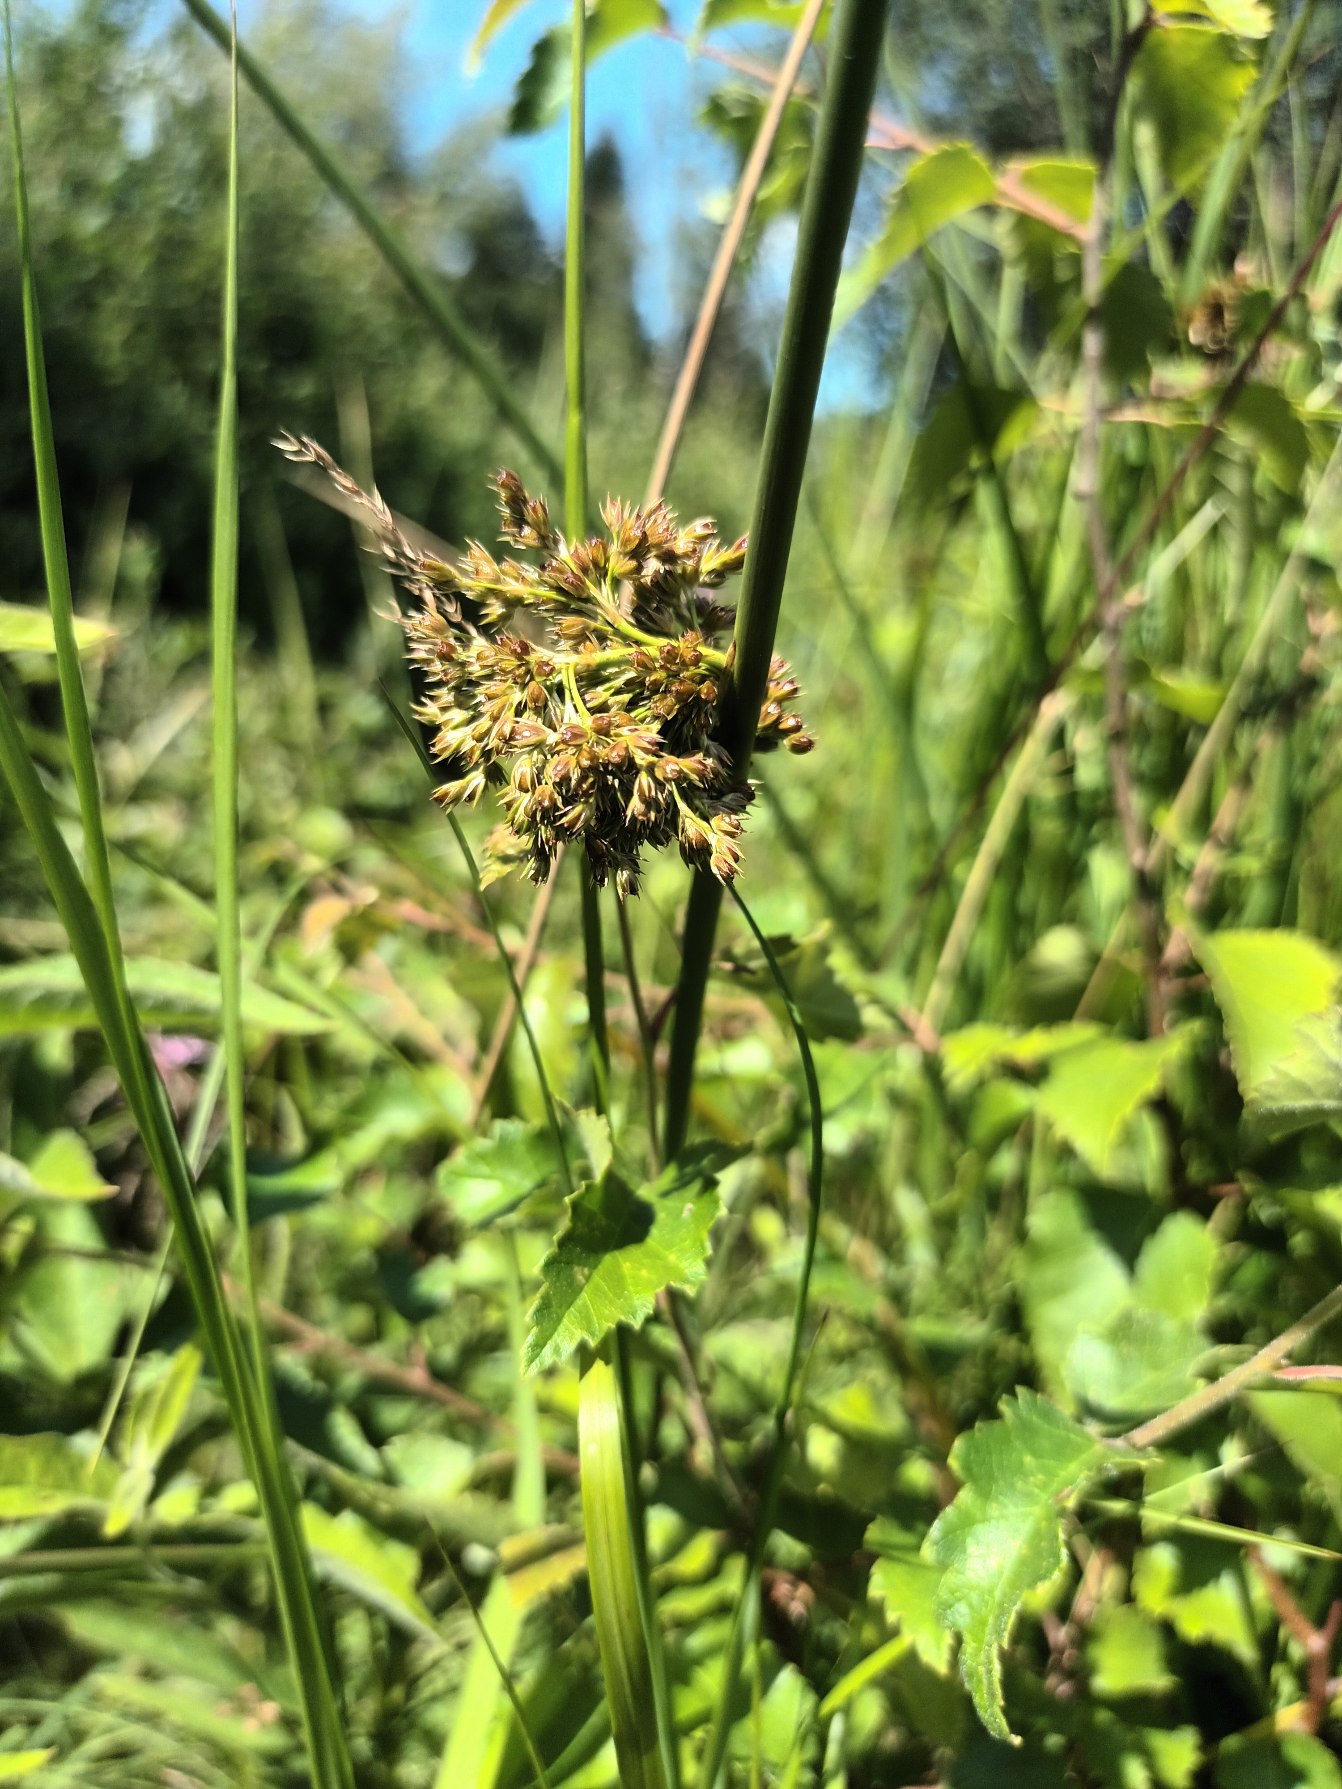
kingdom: Plantae
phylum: Tracheophyta
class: Liliopsida
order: Poales
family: Juncaceae
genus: Juncus
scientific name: Juncus effusus
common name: Lyse-siv
